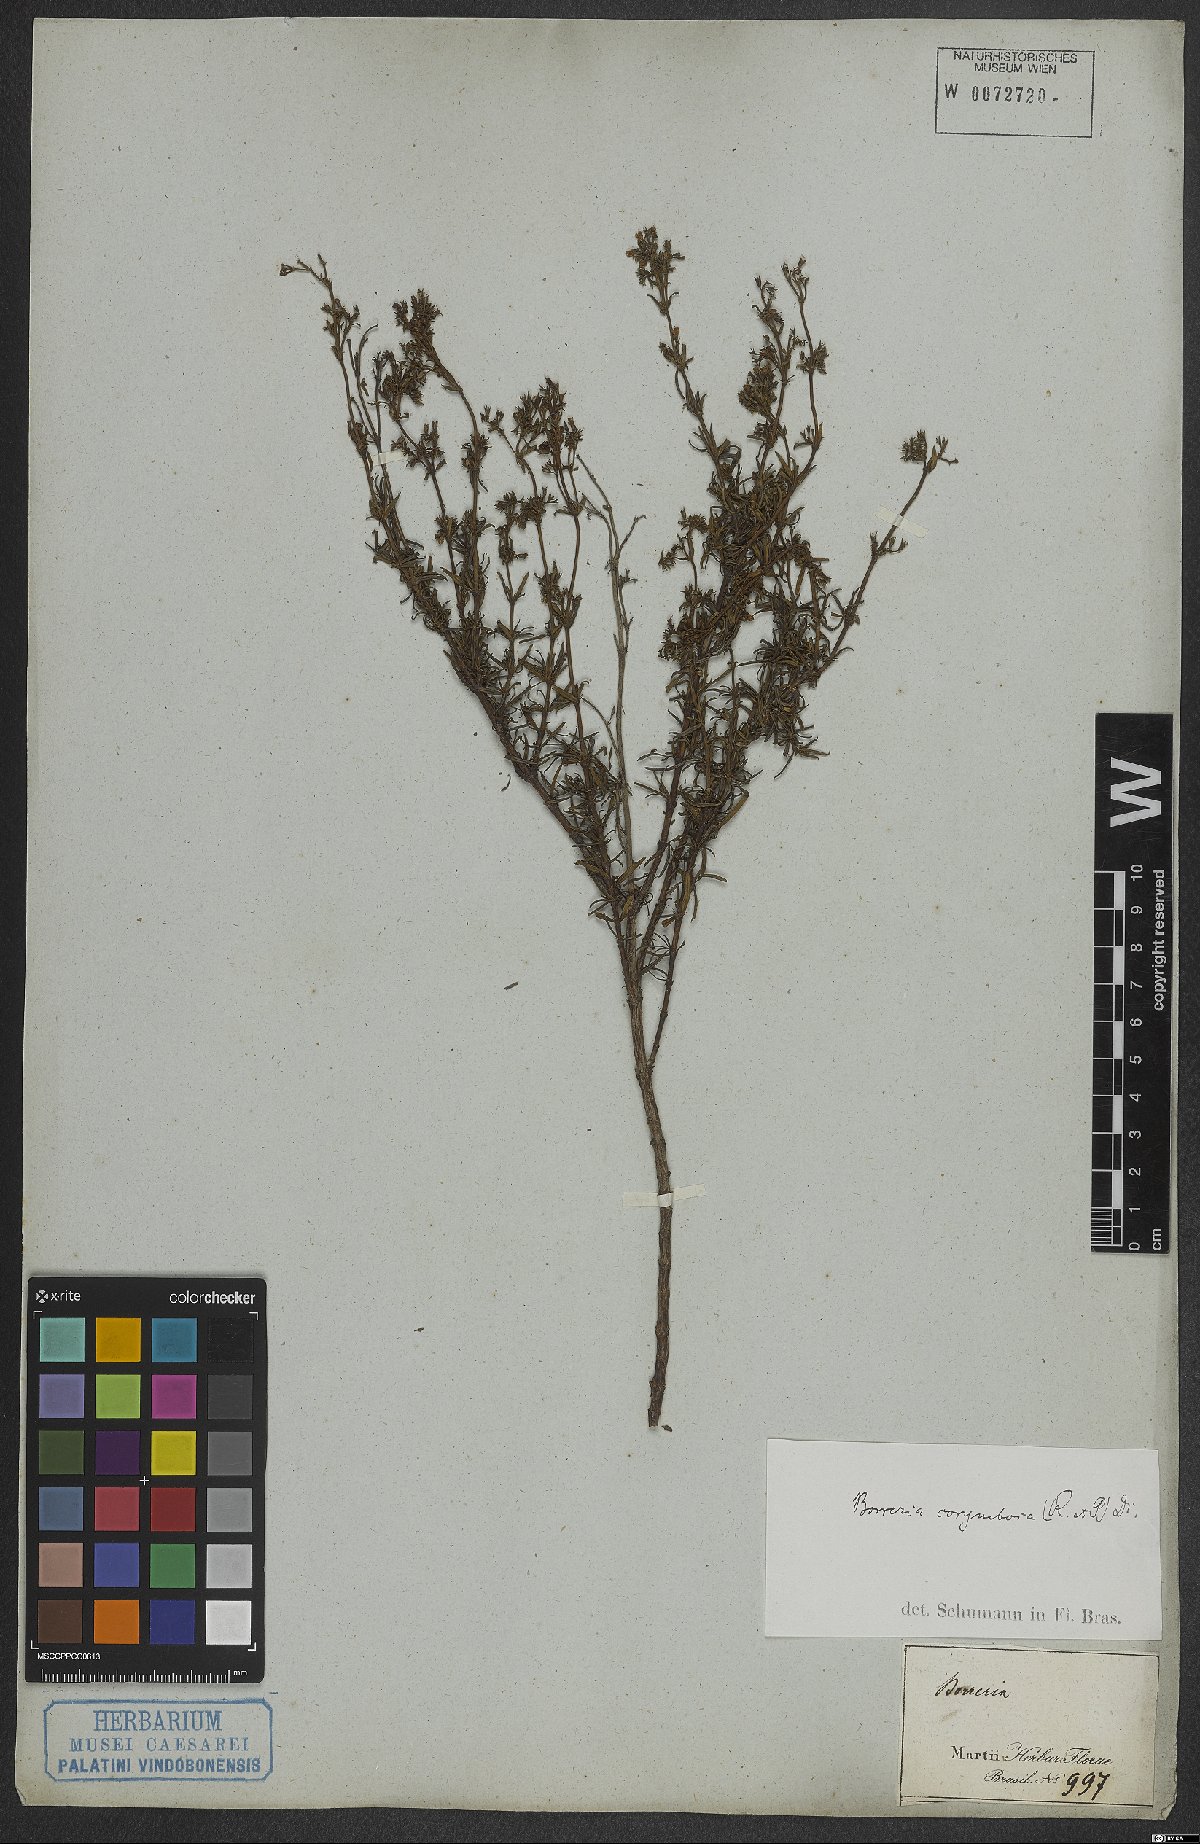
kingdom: Plantae
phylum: Tracheophyta
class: Magnoliopsida
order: Gentianales
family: Rubiaceae
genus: Galianthe
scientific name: Galianthe peruviana
